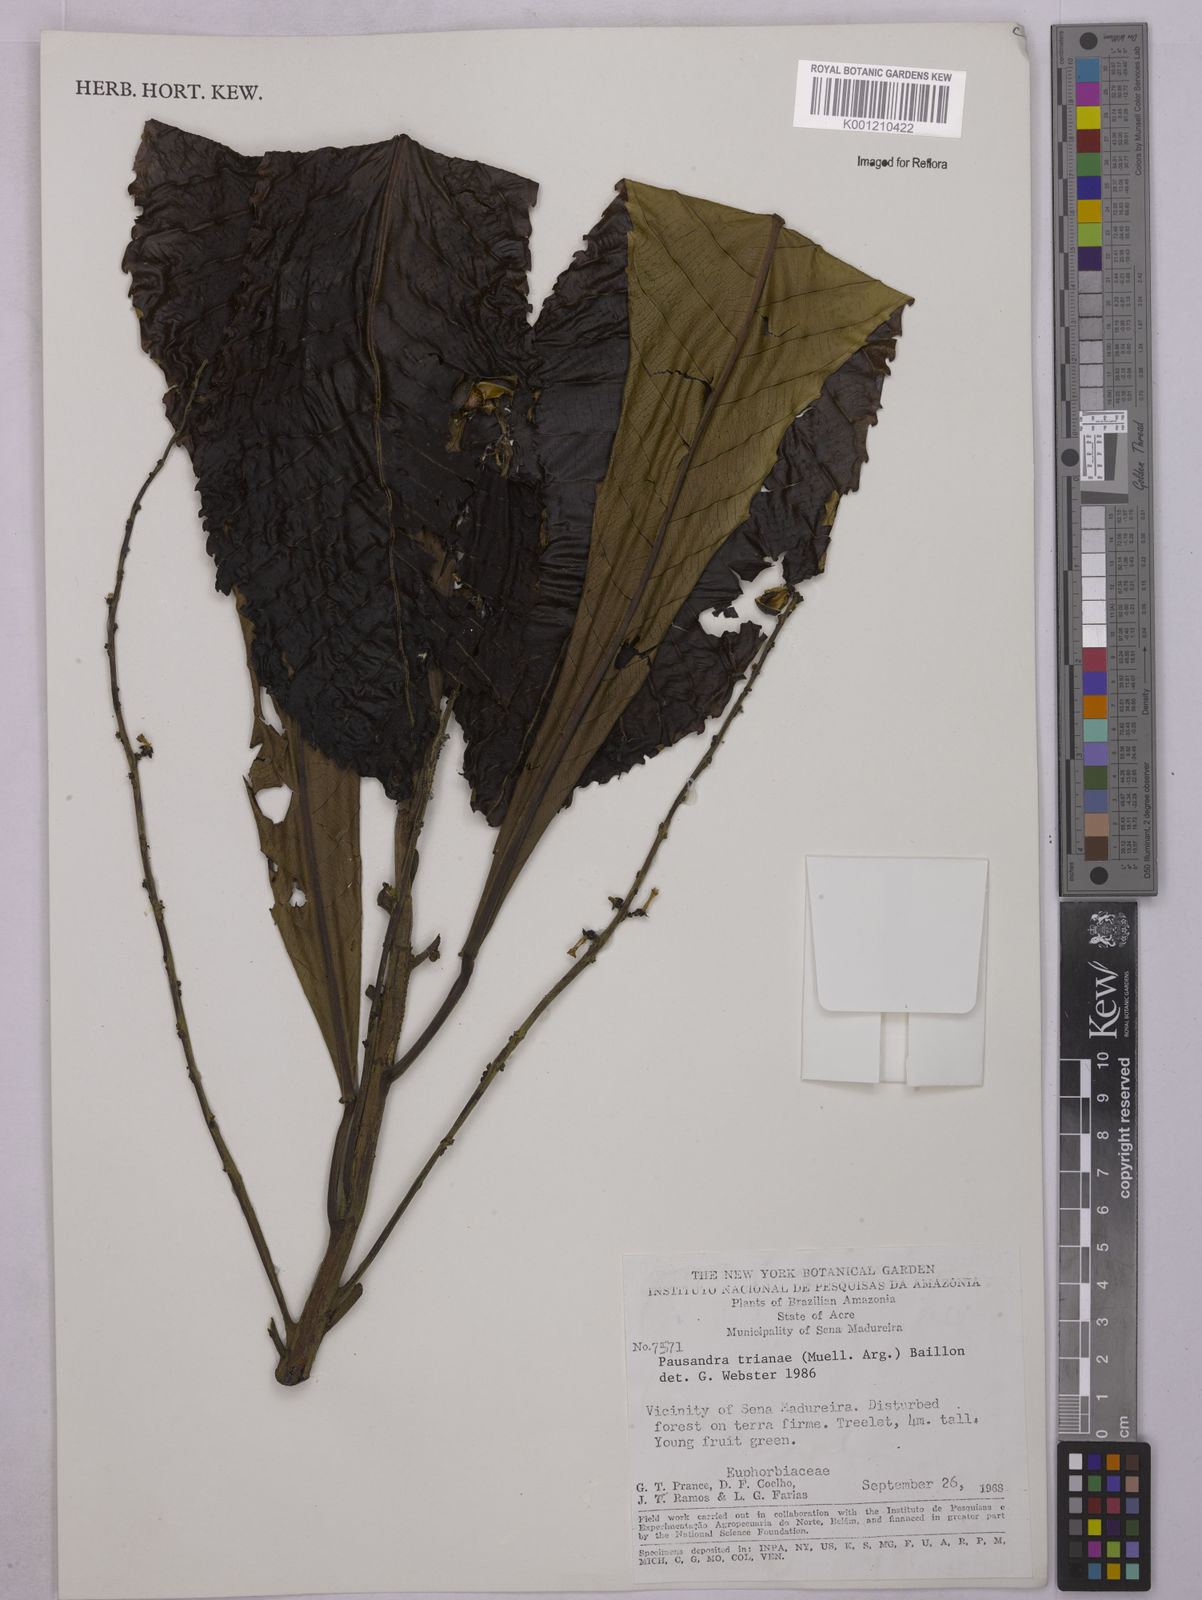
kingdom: Plantae
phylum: Tracheophyta
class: Magnoliopsida
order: Malpighiales
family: Euphorbiaceae
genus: Pausandra
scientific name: Pausandra
